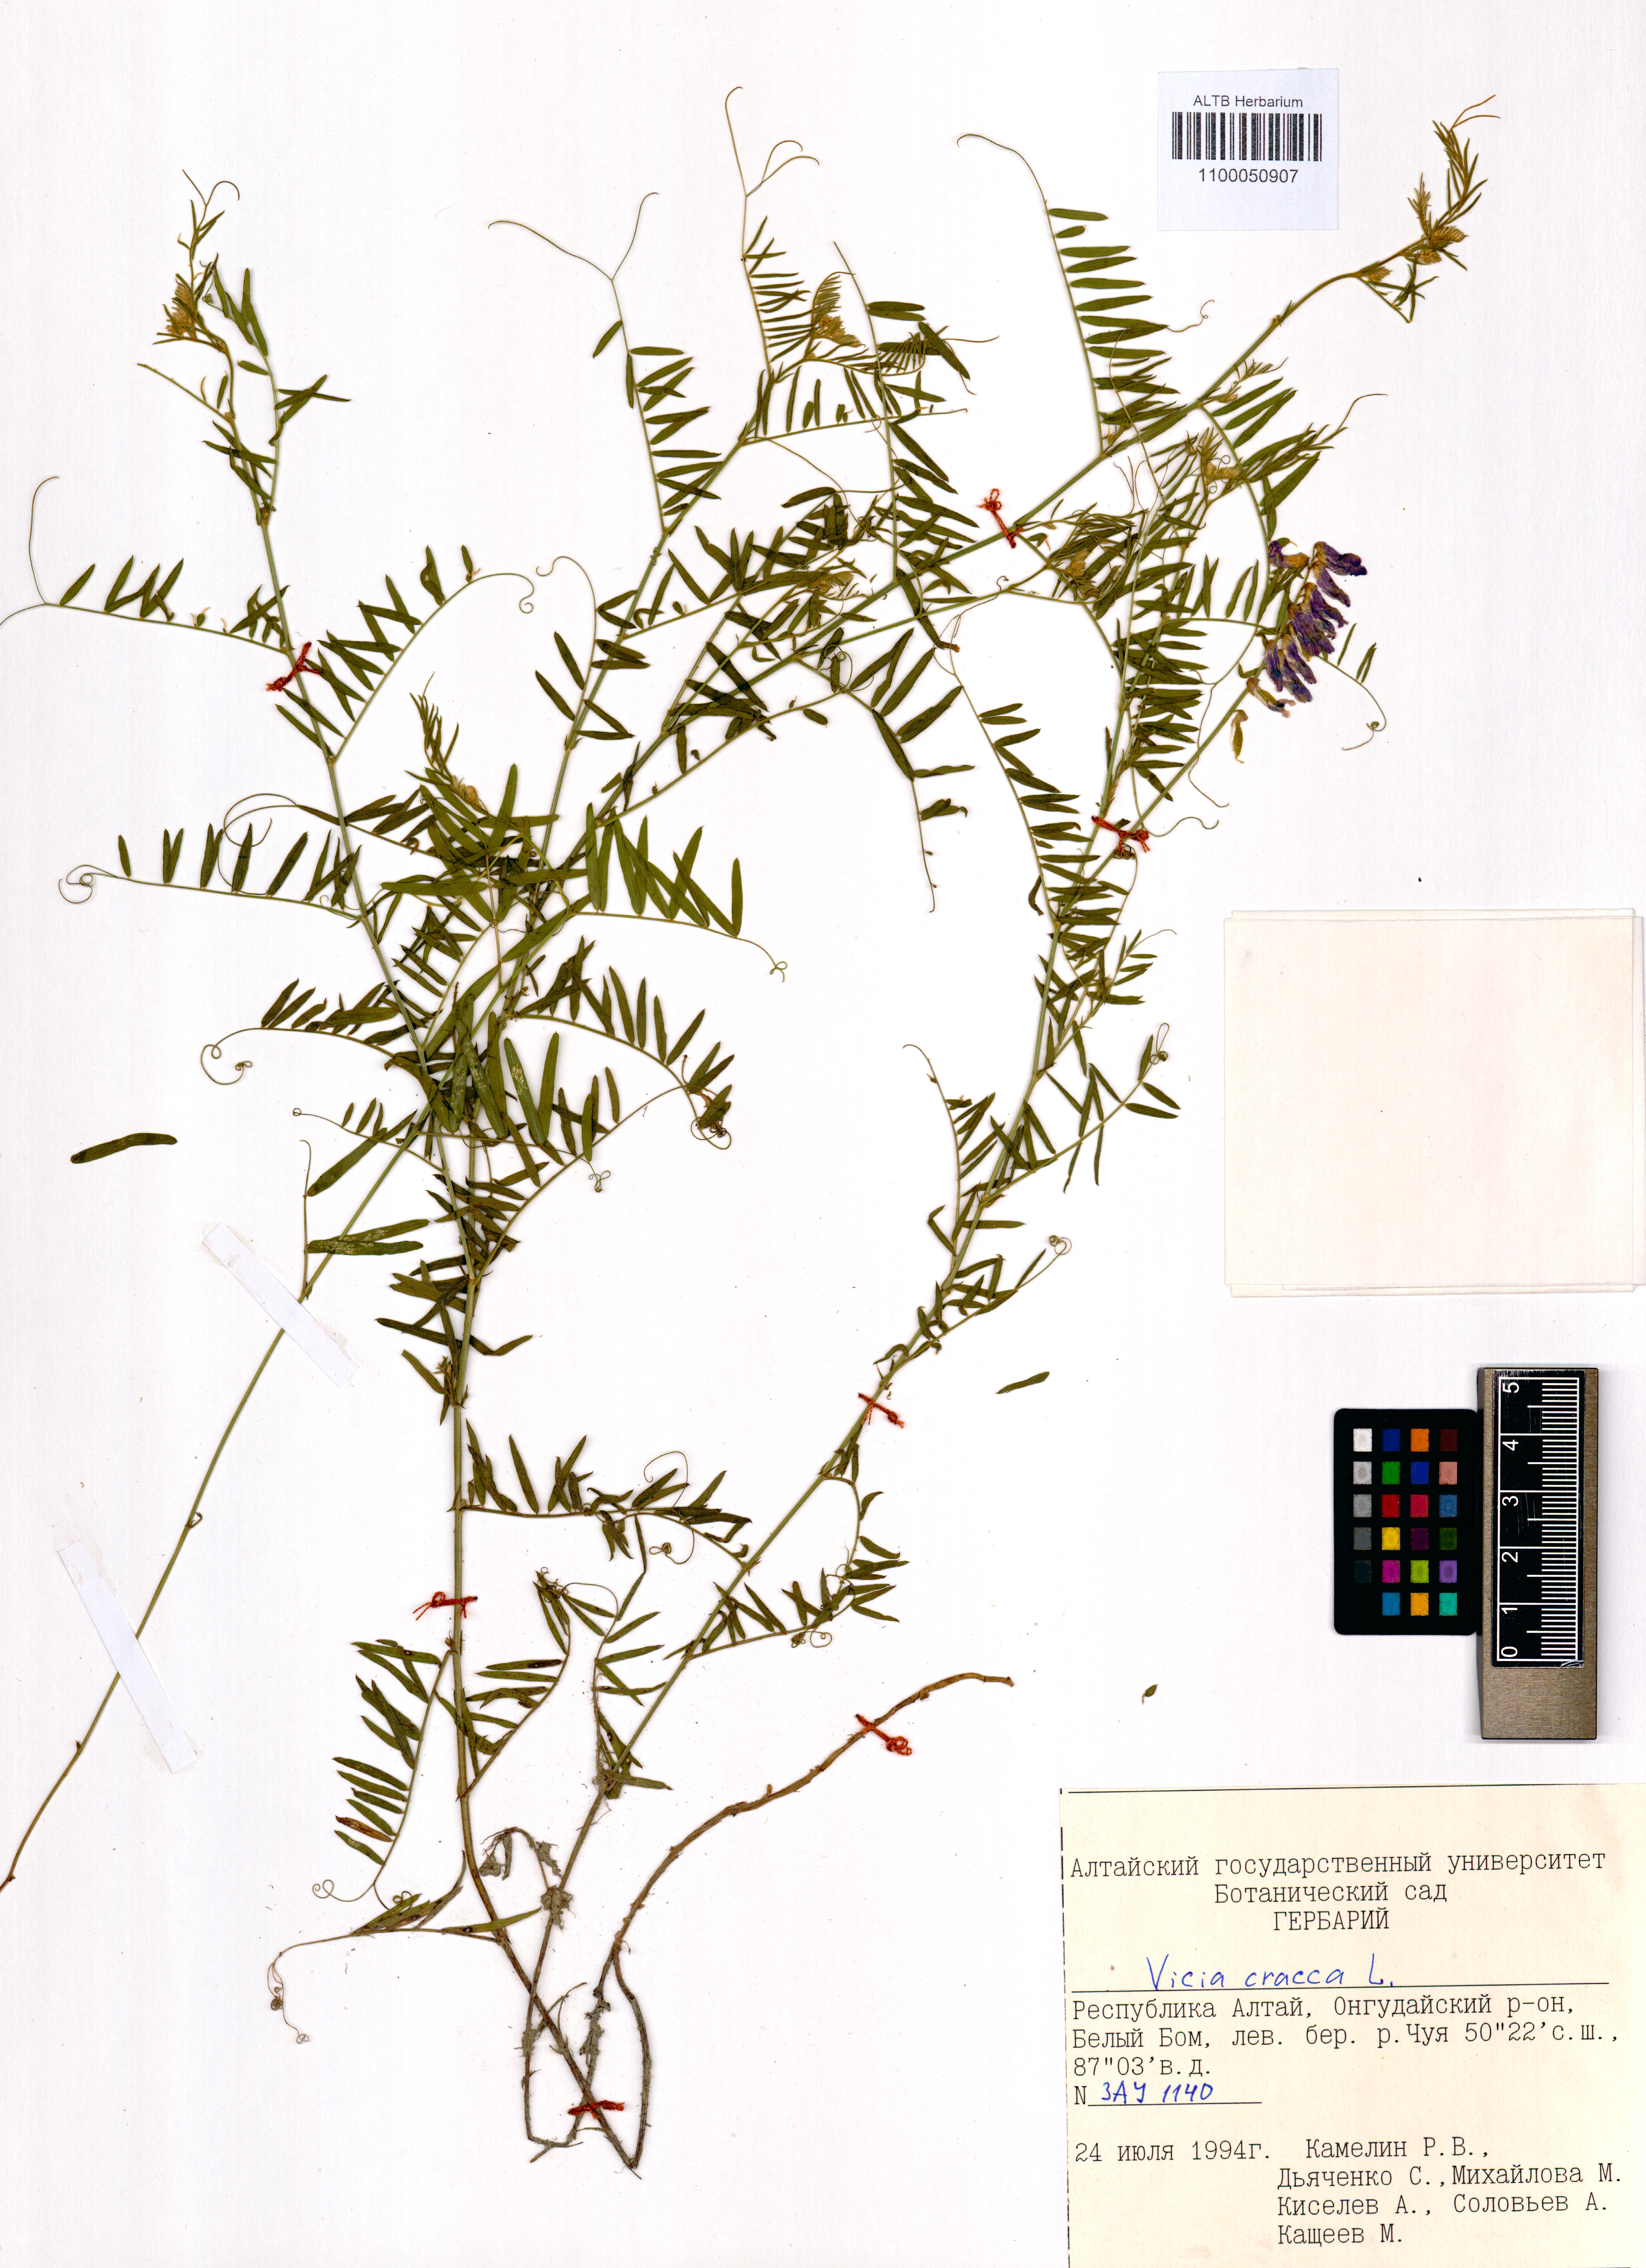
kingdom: Plantae
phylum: Tracheophyta
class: Magnoliopsida
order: Fabales
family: Fabaceae
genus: Vicia
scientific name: Vicia cracca
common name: Bird vetch
